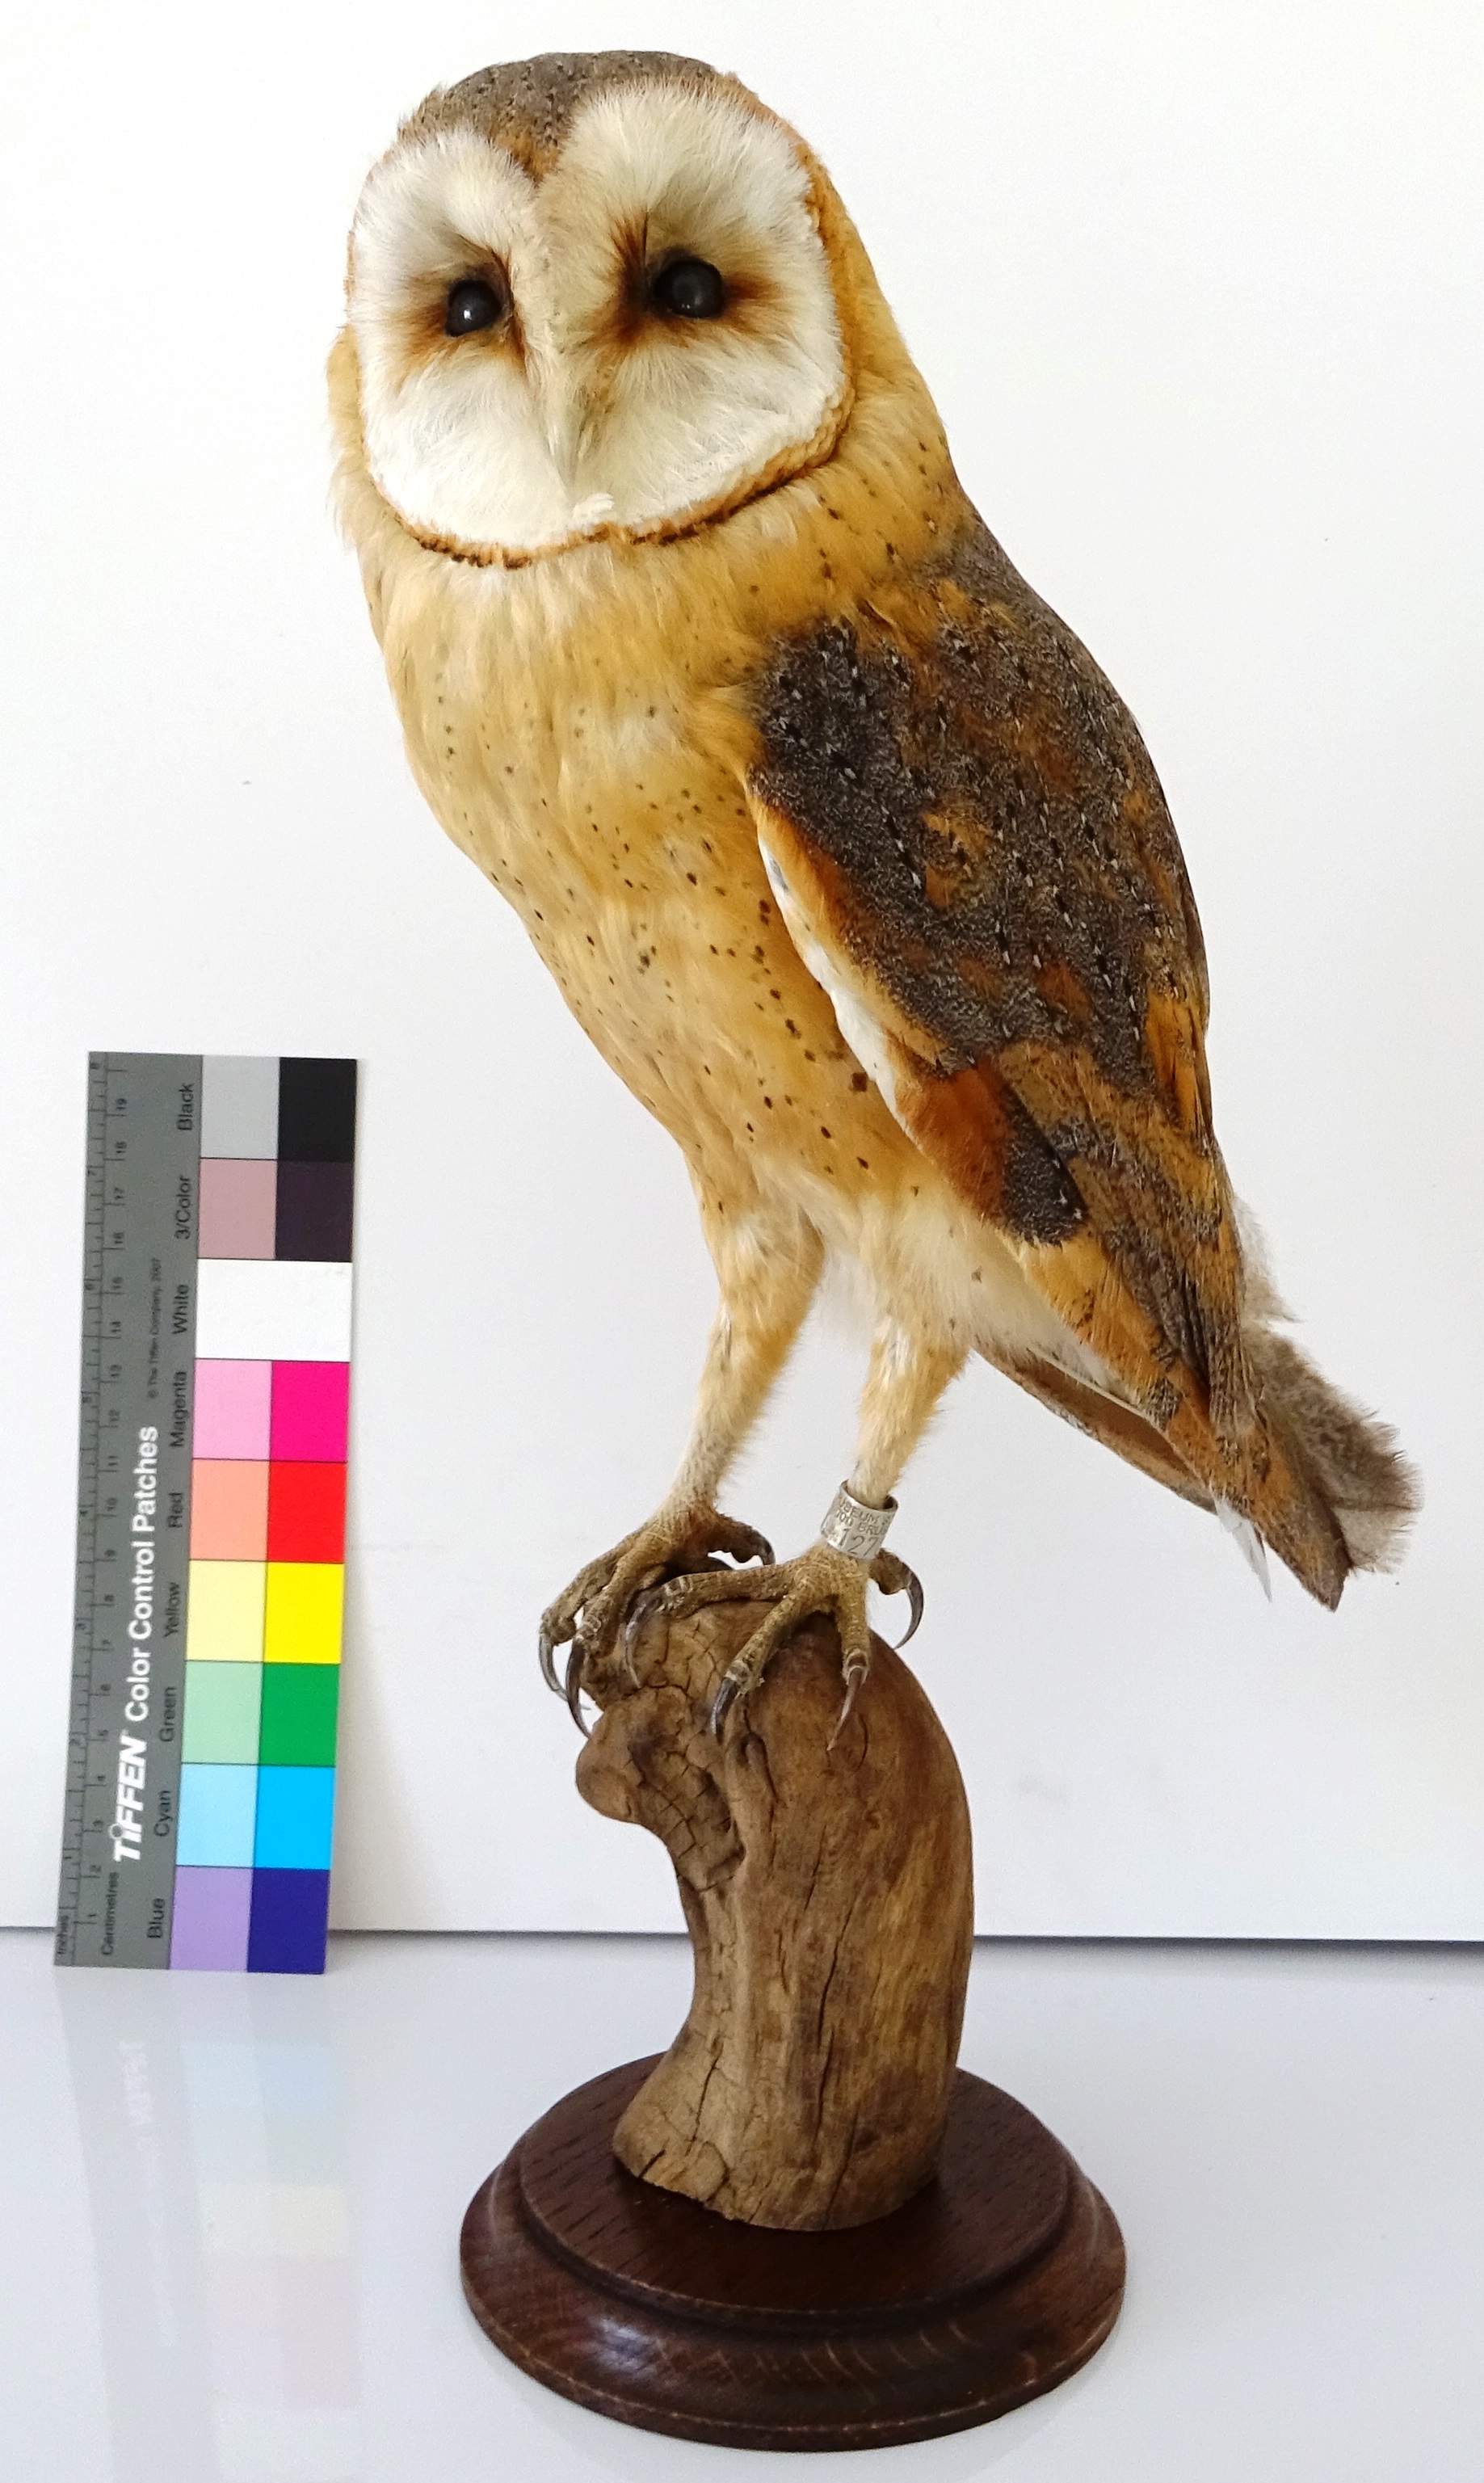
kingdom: Animalia
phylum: Chordata
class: Aves
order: Strigiformes
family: Tytonidae
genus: Tyto
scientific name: Tyto alba
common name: Barn owl
